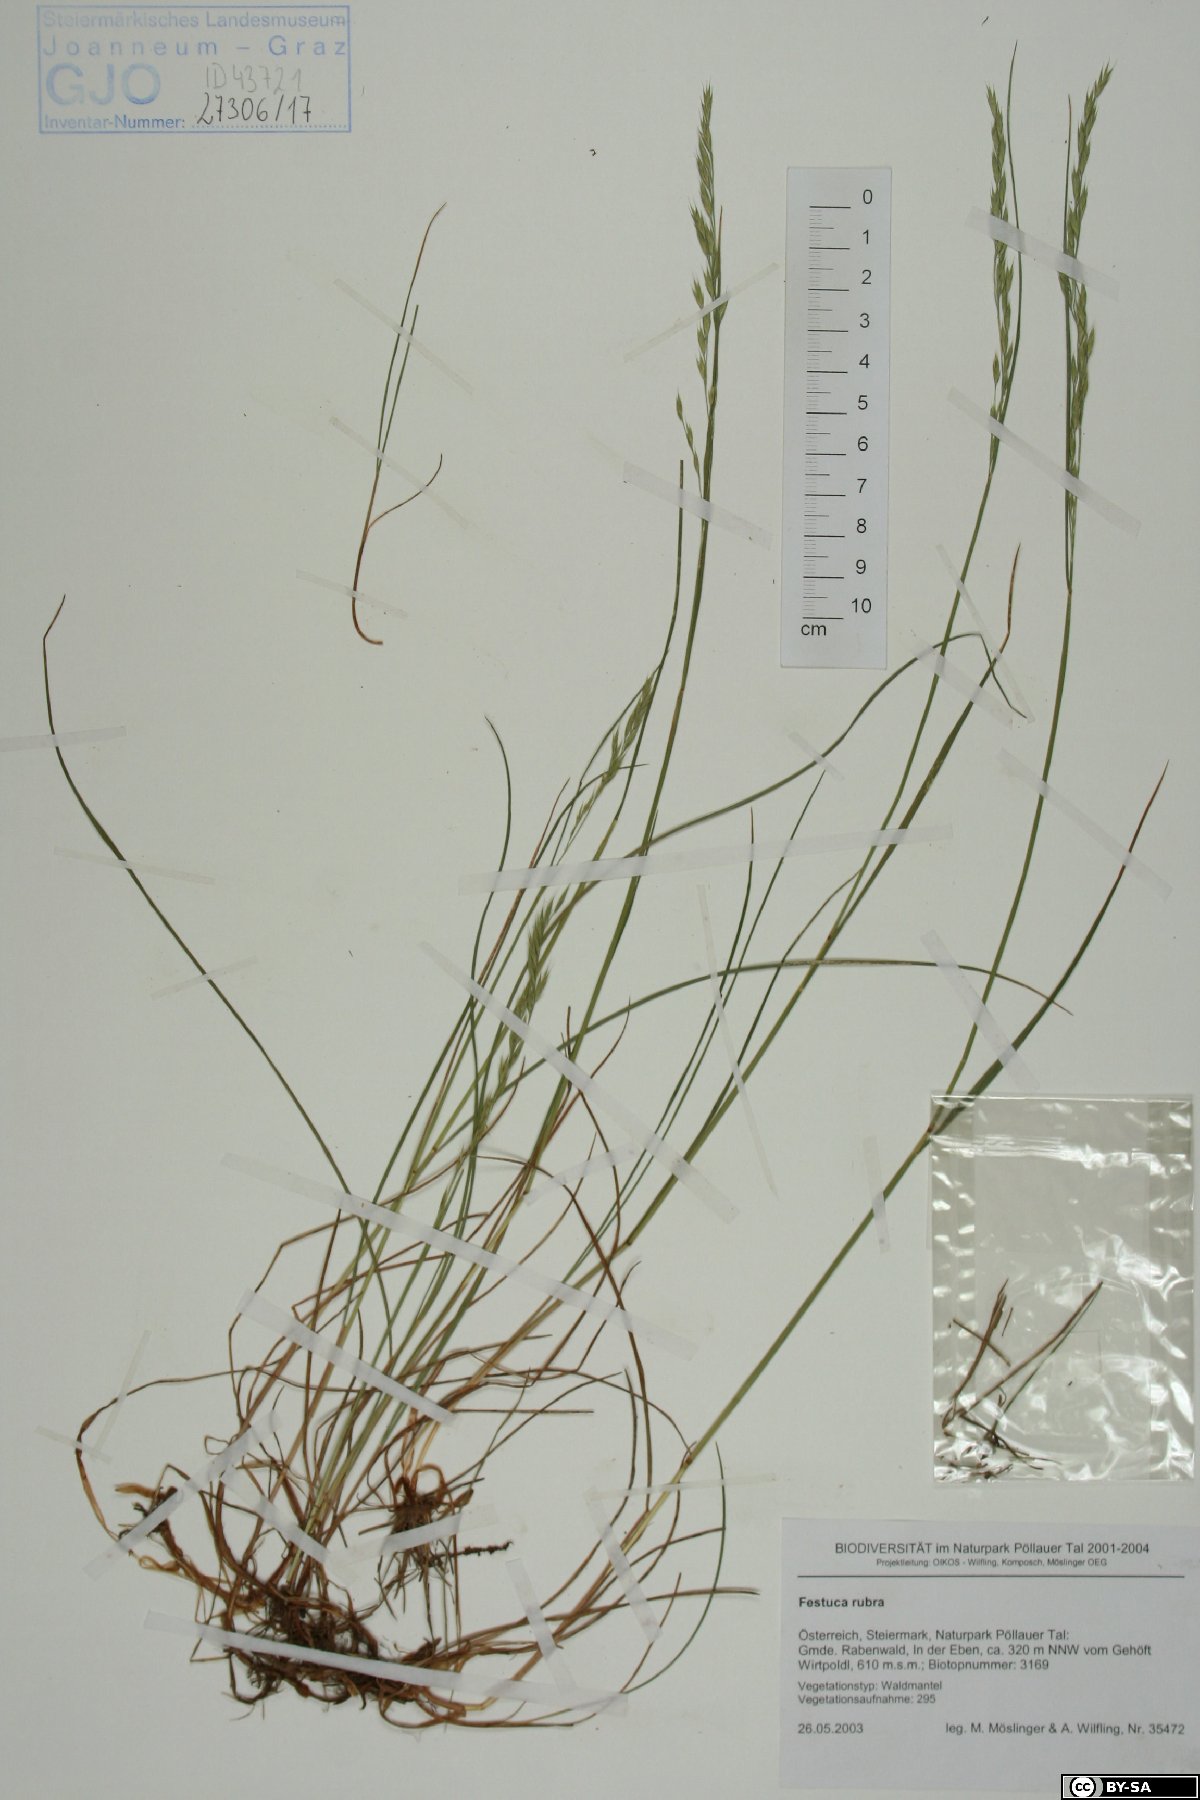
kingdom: Plantae
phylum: Tracheophyta
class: Liliopsida
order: Poales
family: Poaceae
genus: Festuca
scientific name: Festuca rubra
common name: Red fescue
